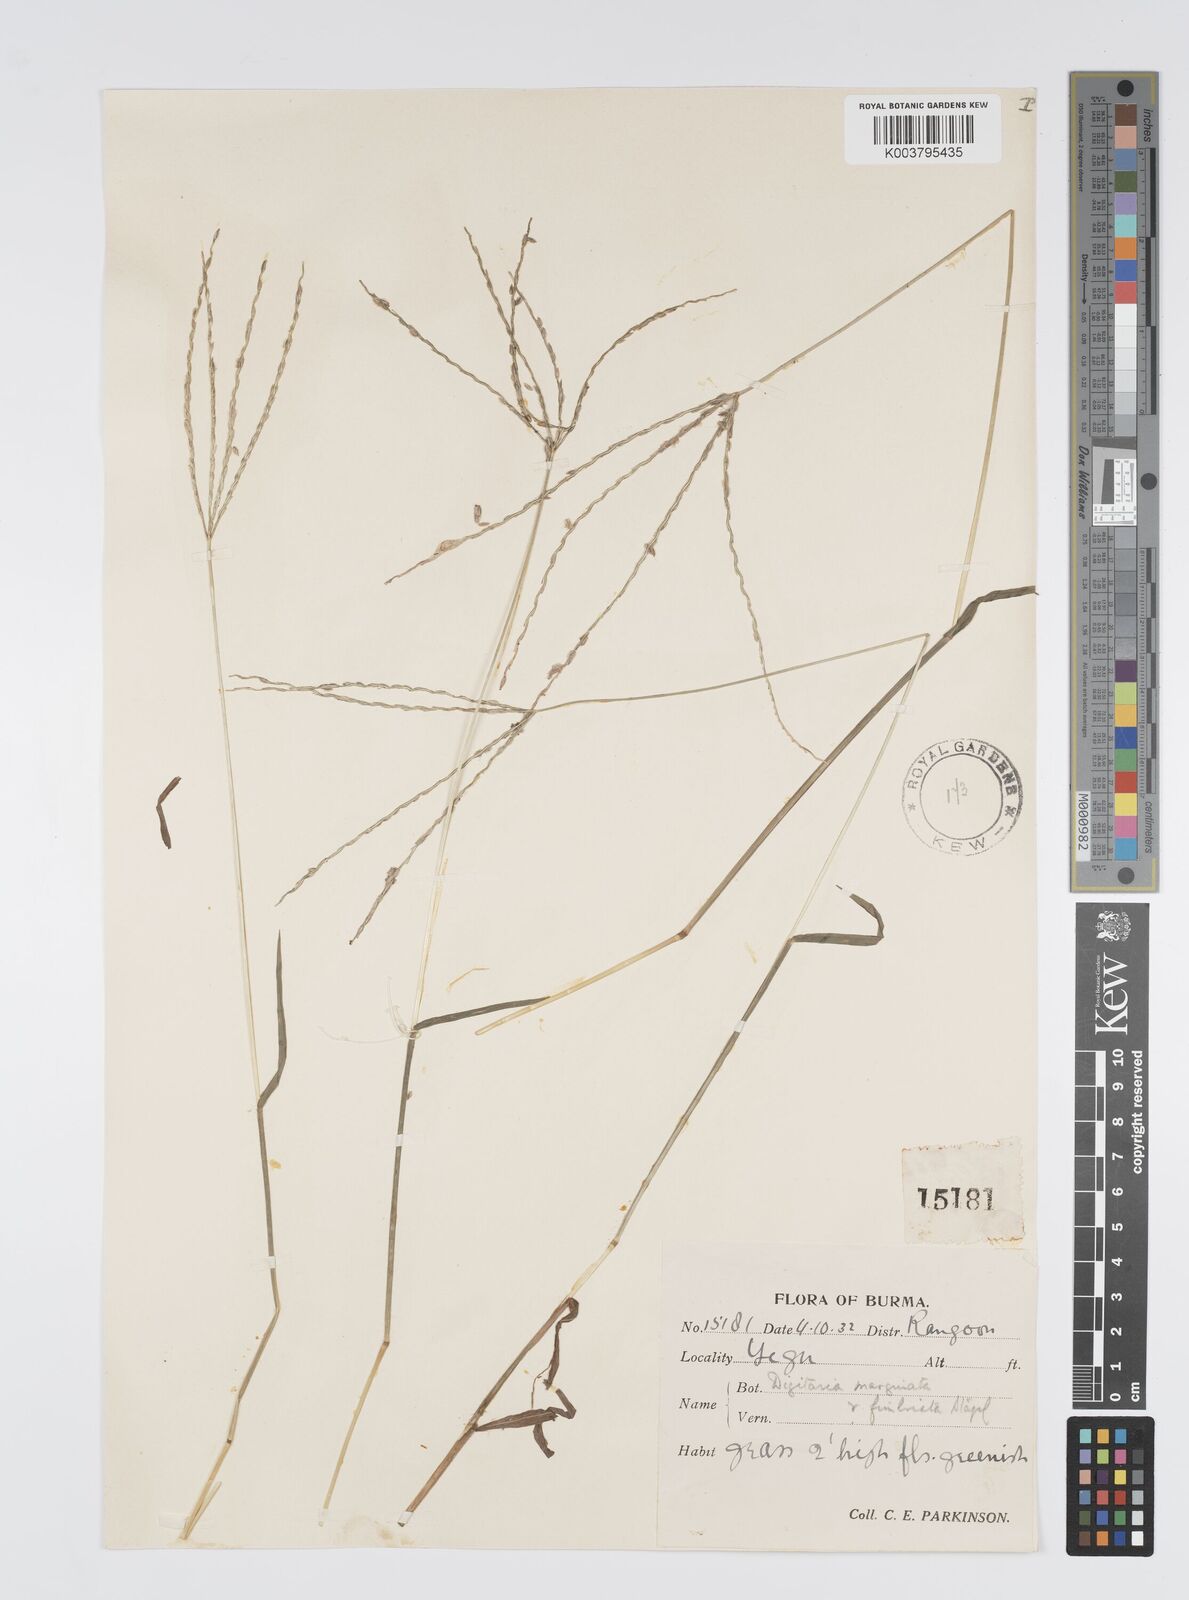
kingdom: Plantae
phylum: Tracheophyta
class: Liliopsida
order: Poales
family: Poaceae
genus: Digitaria
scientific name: Digitaria bicornis
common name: Asian crabgrass
